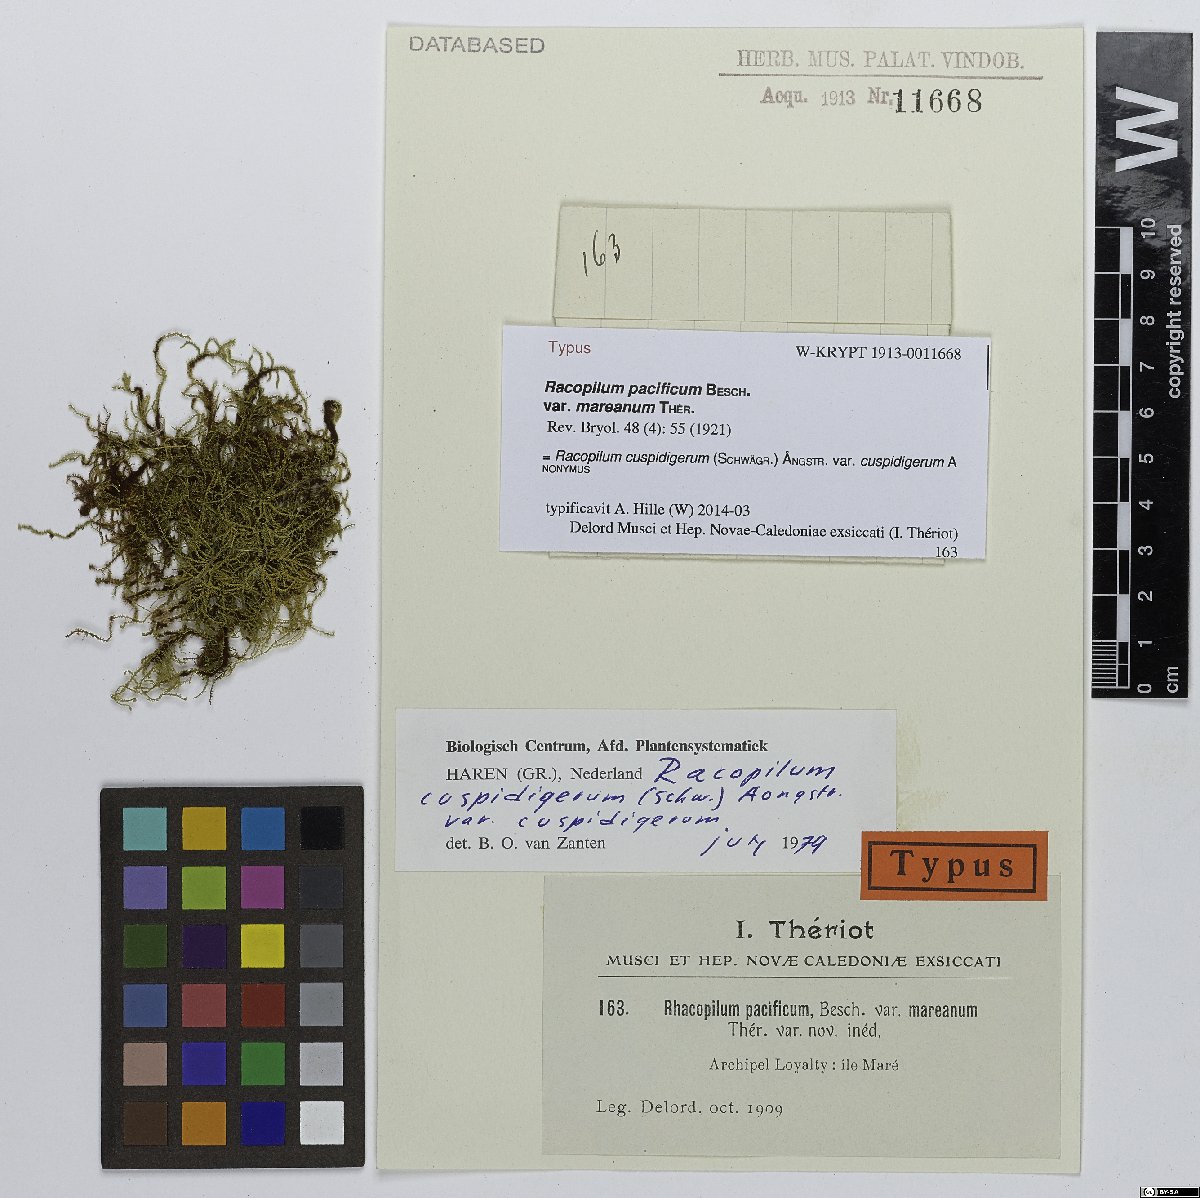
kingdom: Plantae
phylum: Bryophyta
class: Bryopsida
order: Hypnodendrales
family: Racopilaceae
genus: Racopilum
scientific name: Racopilum cuspidigerum
